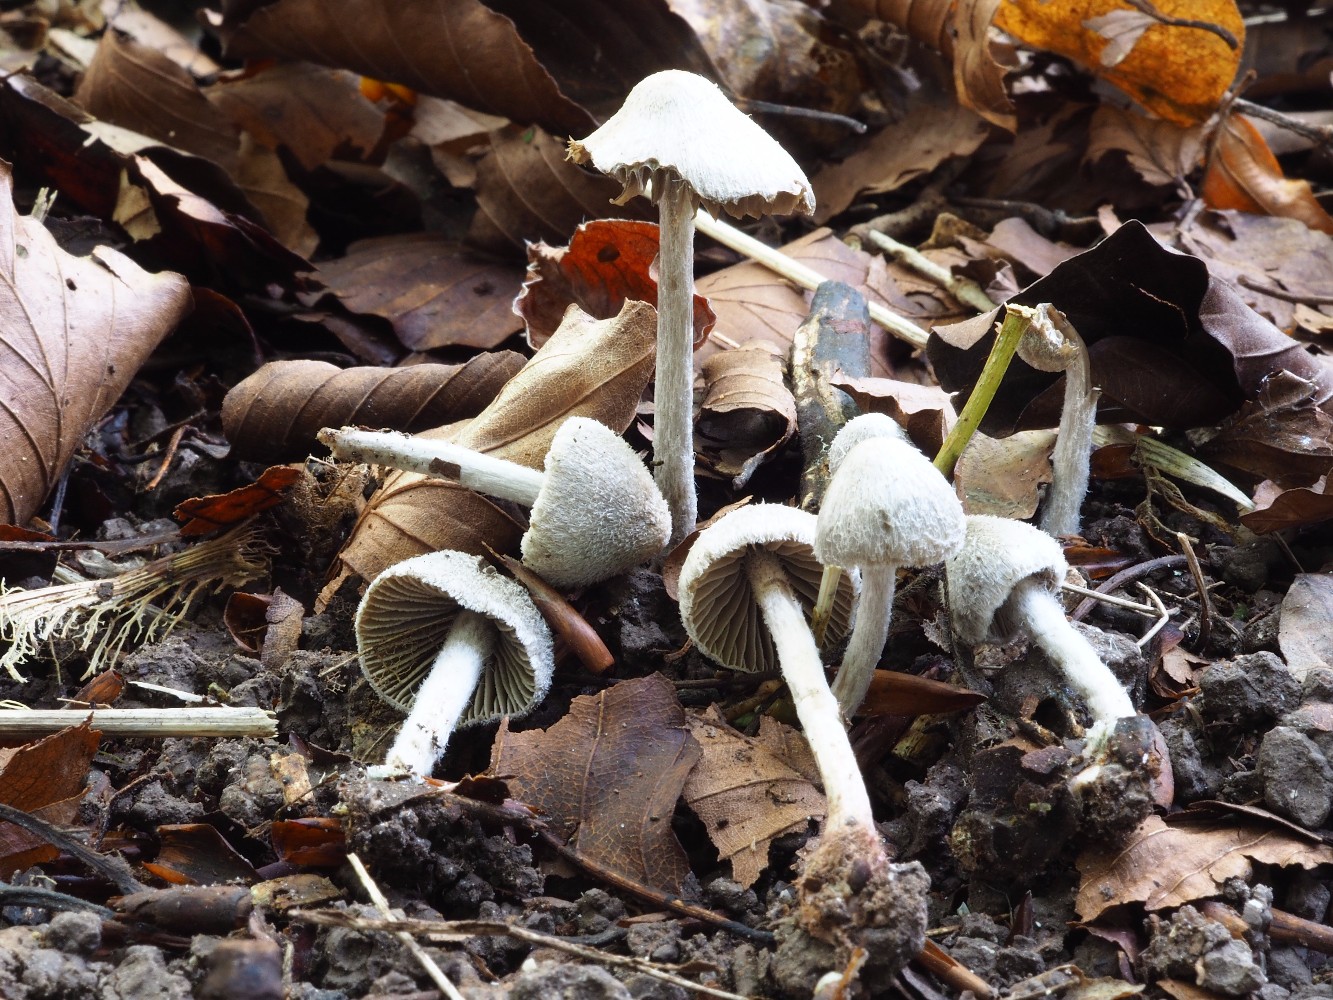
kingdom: Fungi
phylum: Basidiomycota
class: Agaricomycetes
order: Agaricales
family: Entolomataceae
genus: Entoloma
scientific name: Entoloma araneosum
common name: spindelvævs-rødblad
